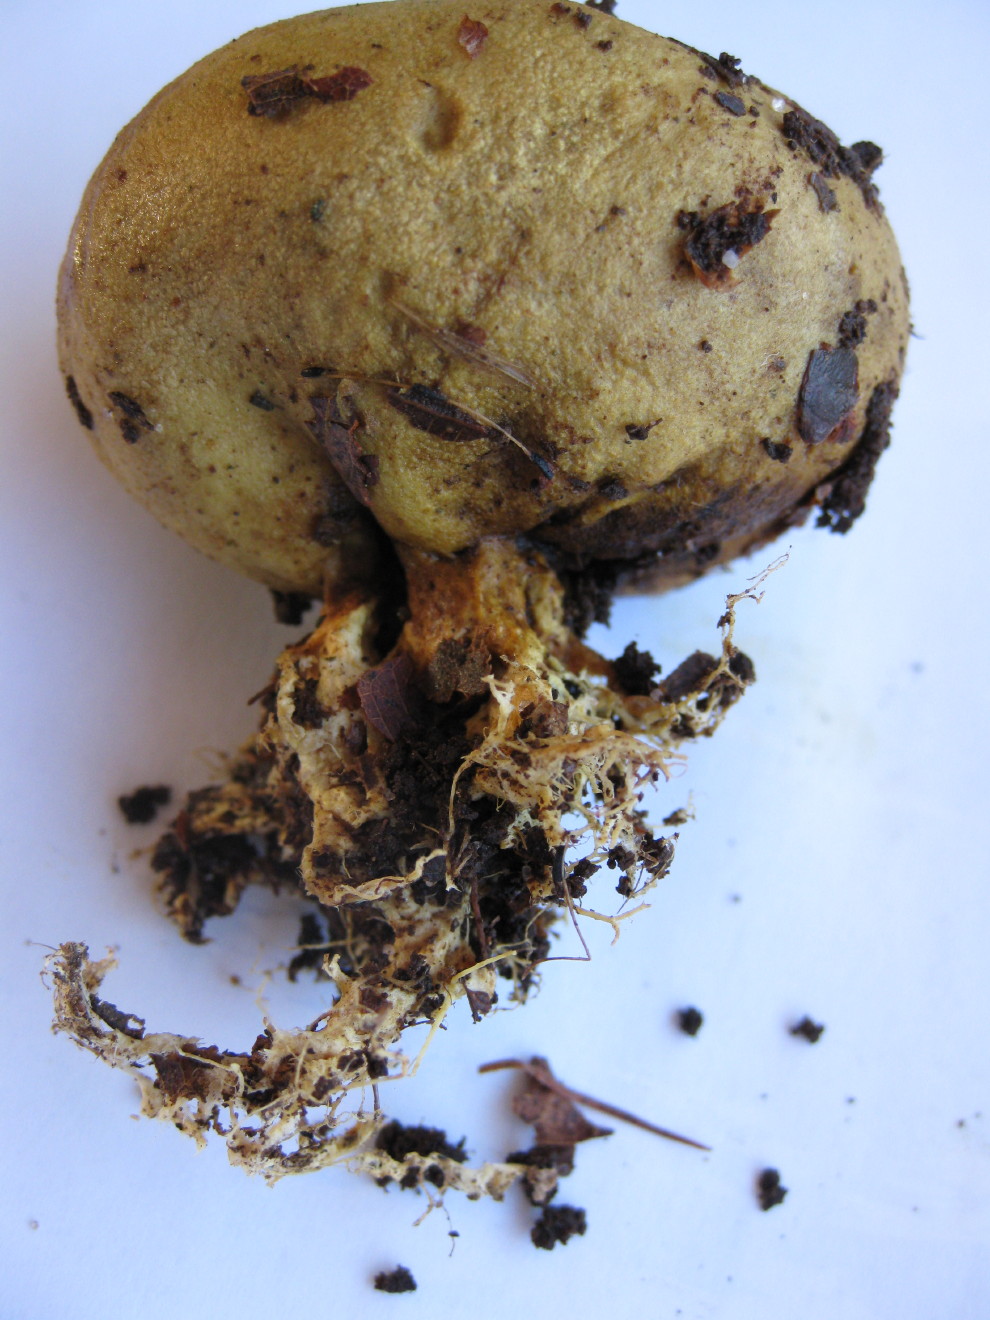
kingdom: Fungi
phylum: Basidiomycota
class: Agaricomycetes
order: Boletales
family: Sclerodermataceae
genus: Scleroderma
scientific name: Scleroderma
